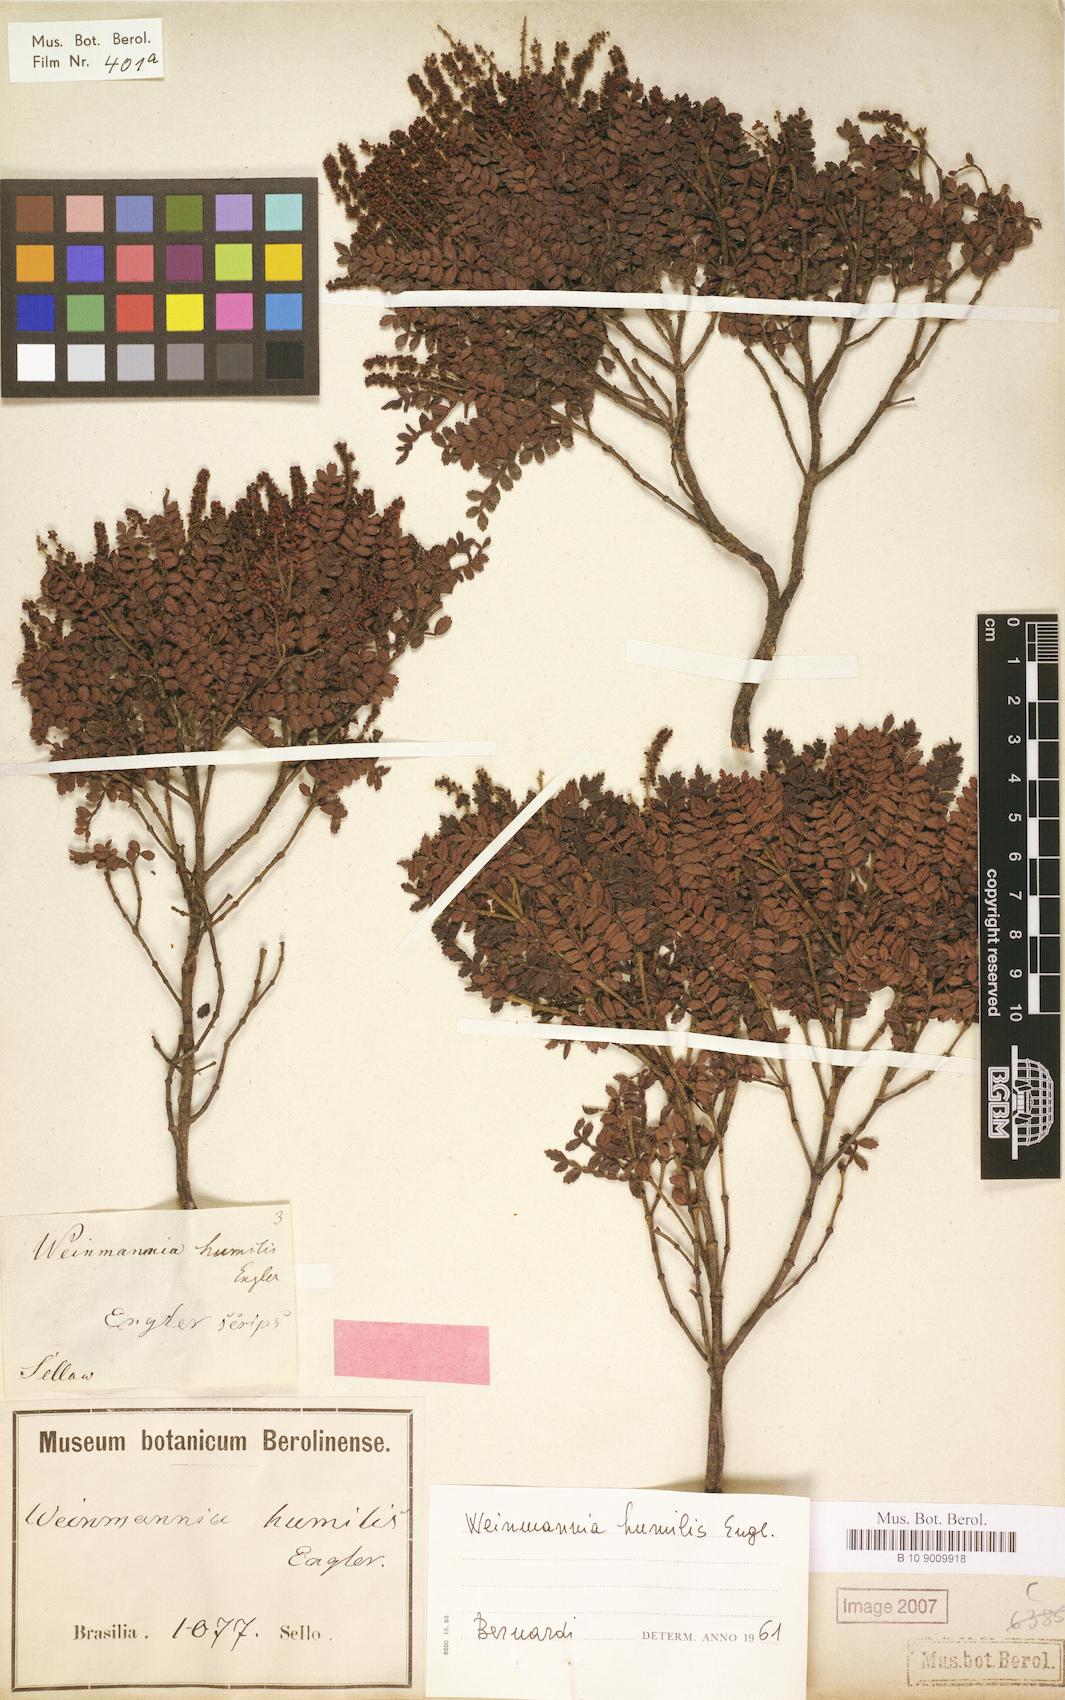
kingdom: Plantae
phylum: Tracheophyta
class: Magnoliopsida
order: Oxalidales
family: Cunoniaceae
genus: Weinmannia
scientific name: Weinmannia humilis
